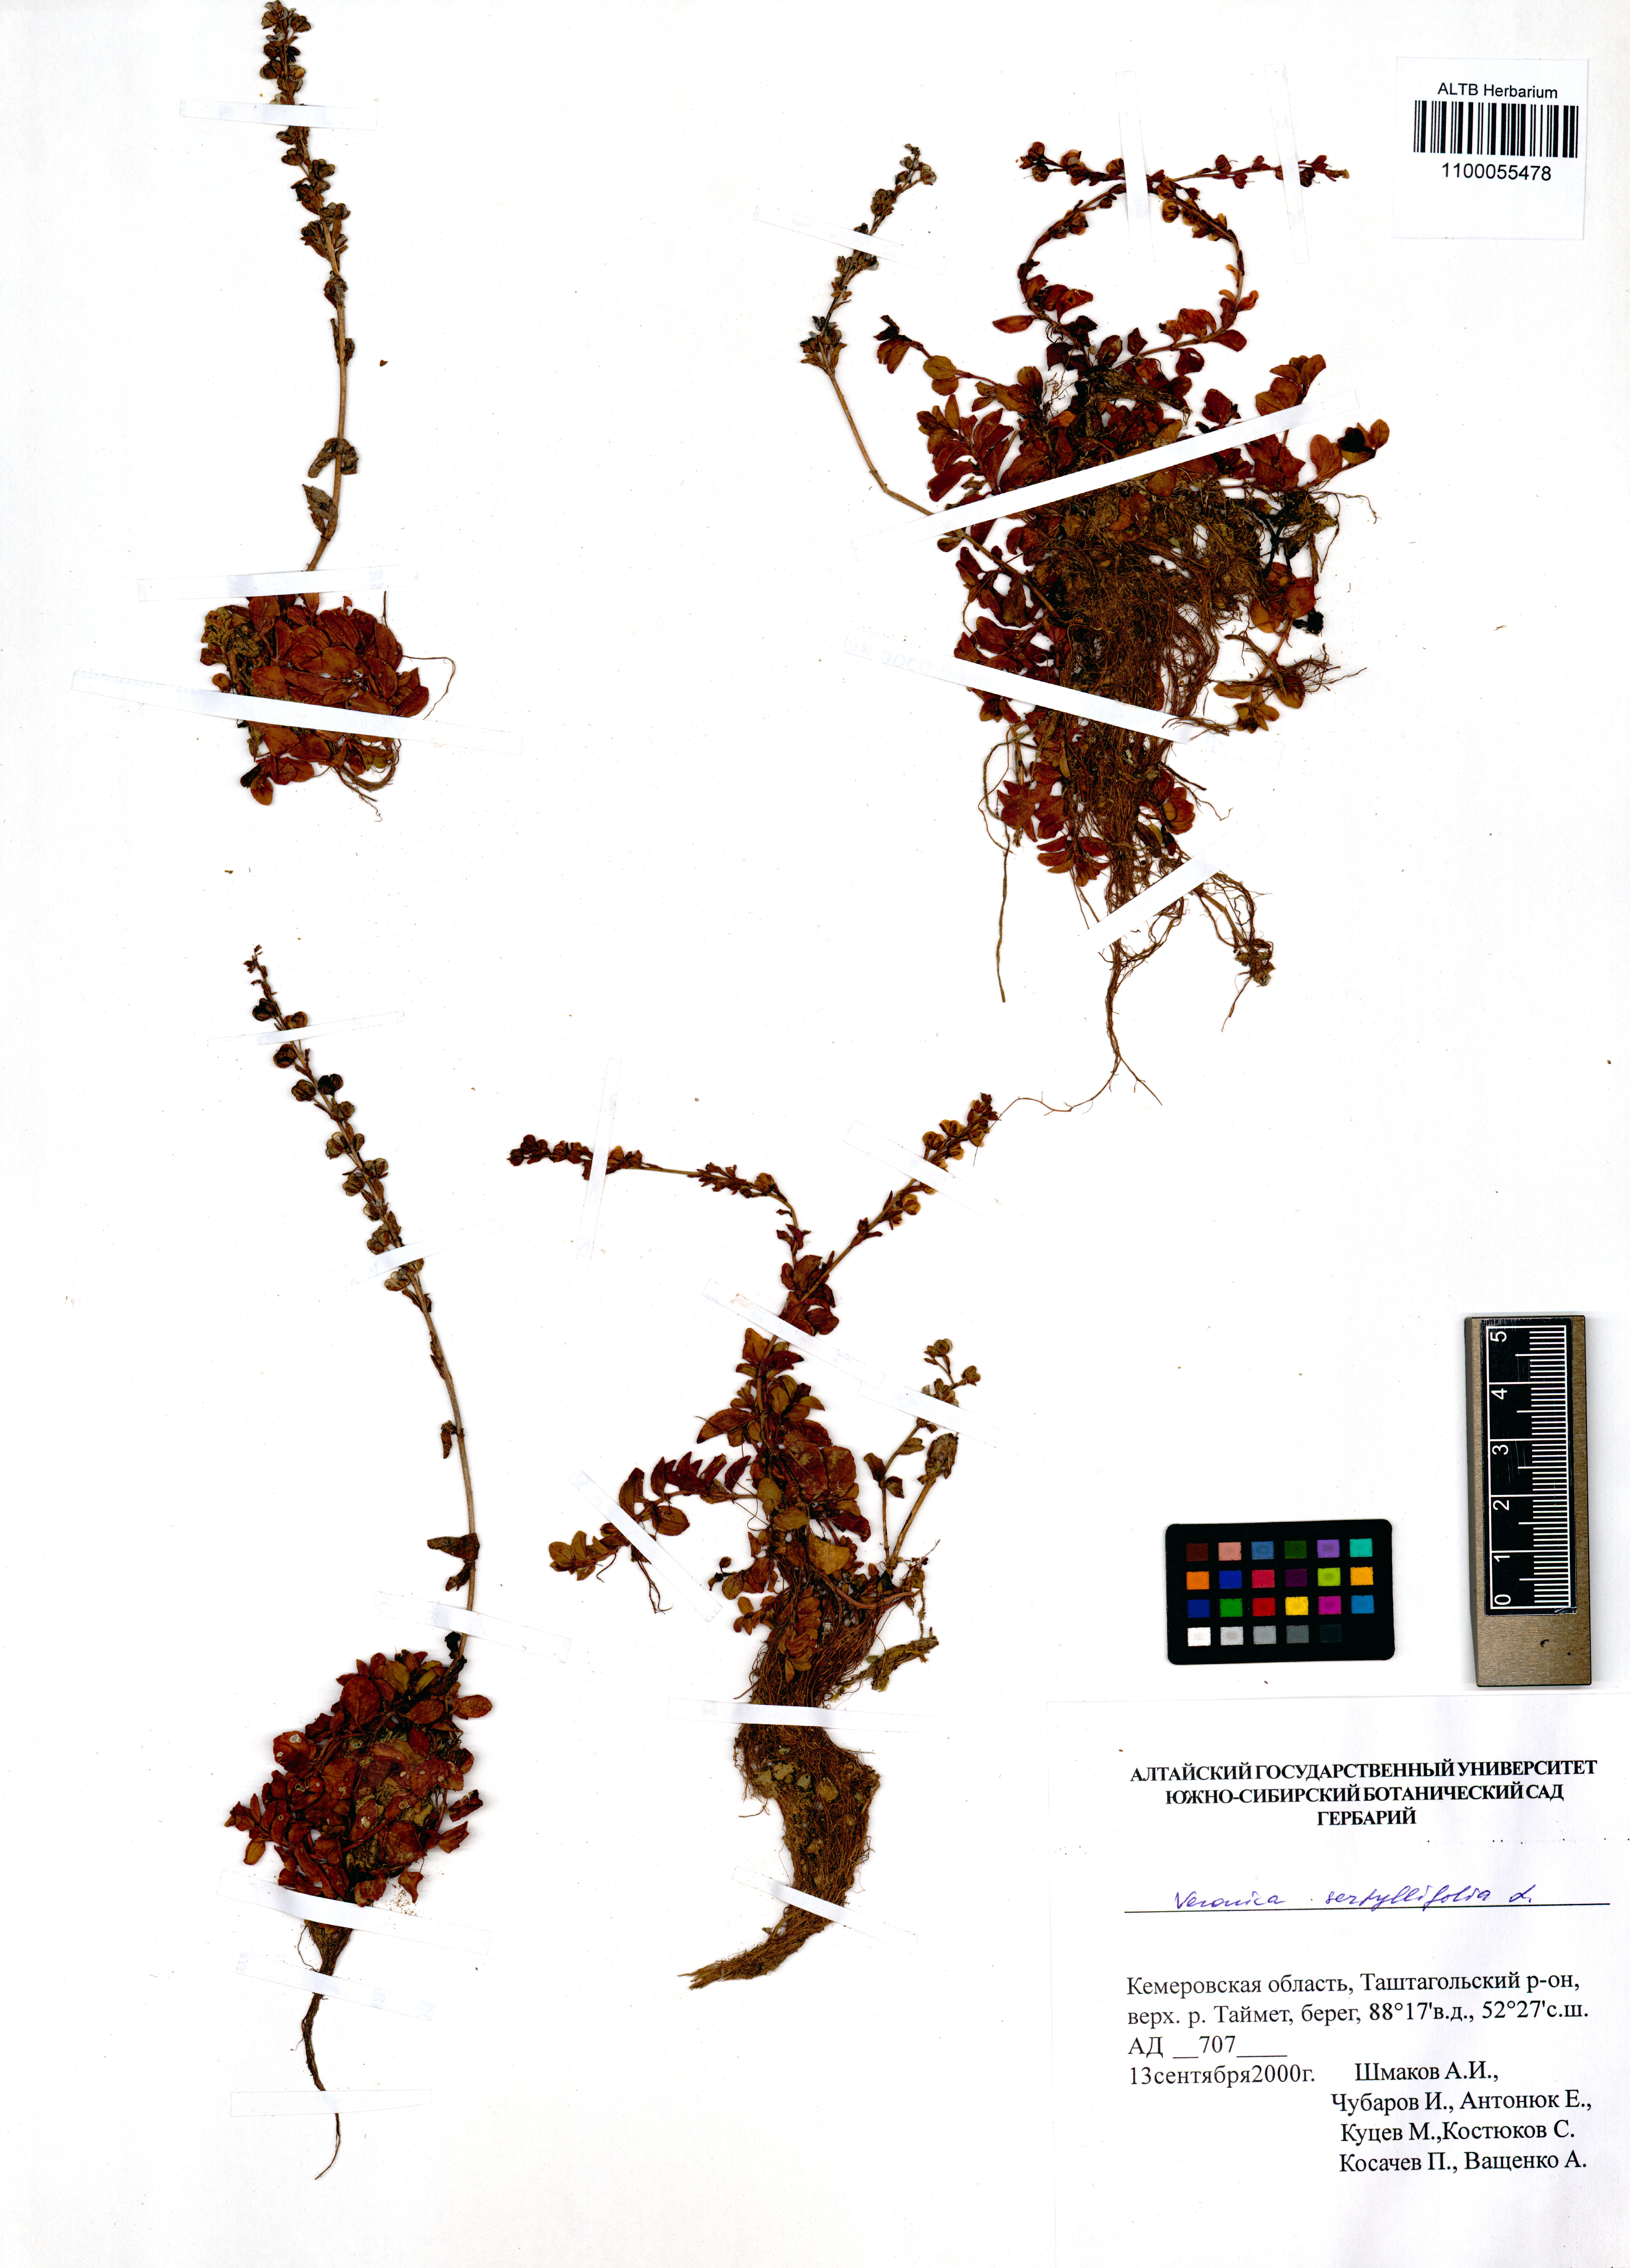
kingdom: Plantae
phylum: Tracheophyta
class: Magnoliopsida
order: Lamiales
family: Plantaginaceae
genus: Veronica
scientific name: Veronica serpyllifolia
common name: Thyme-leaved speedwell
